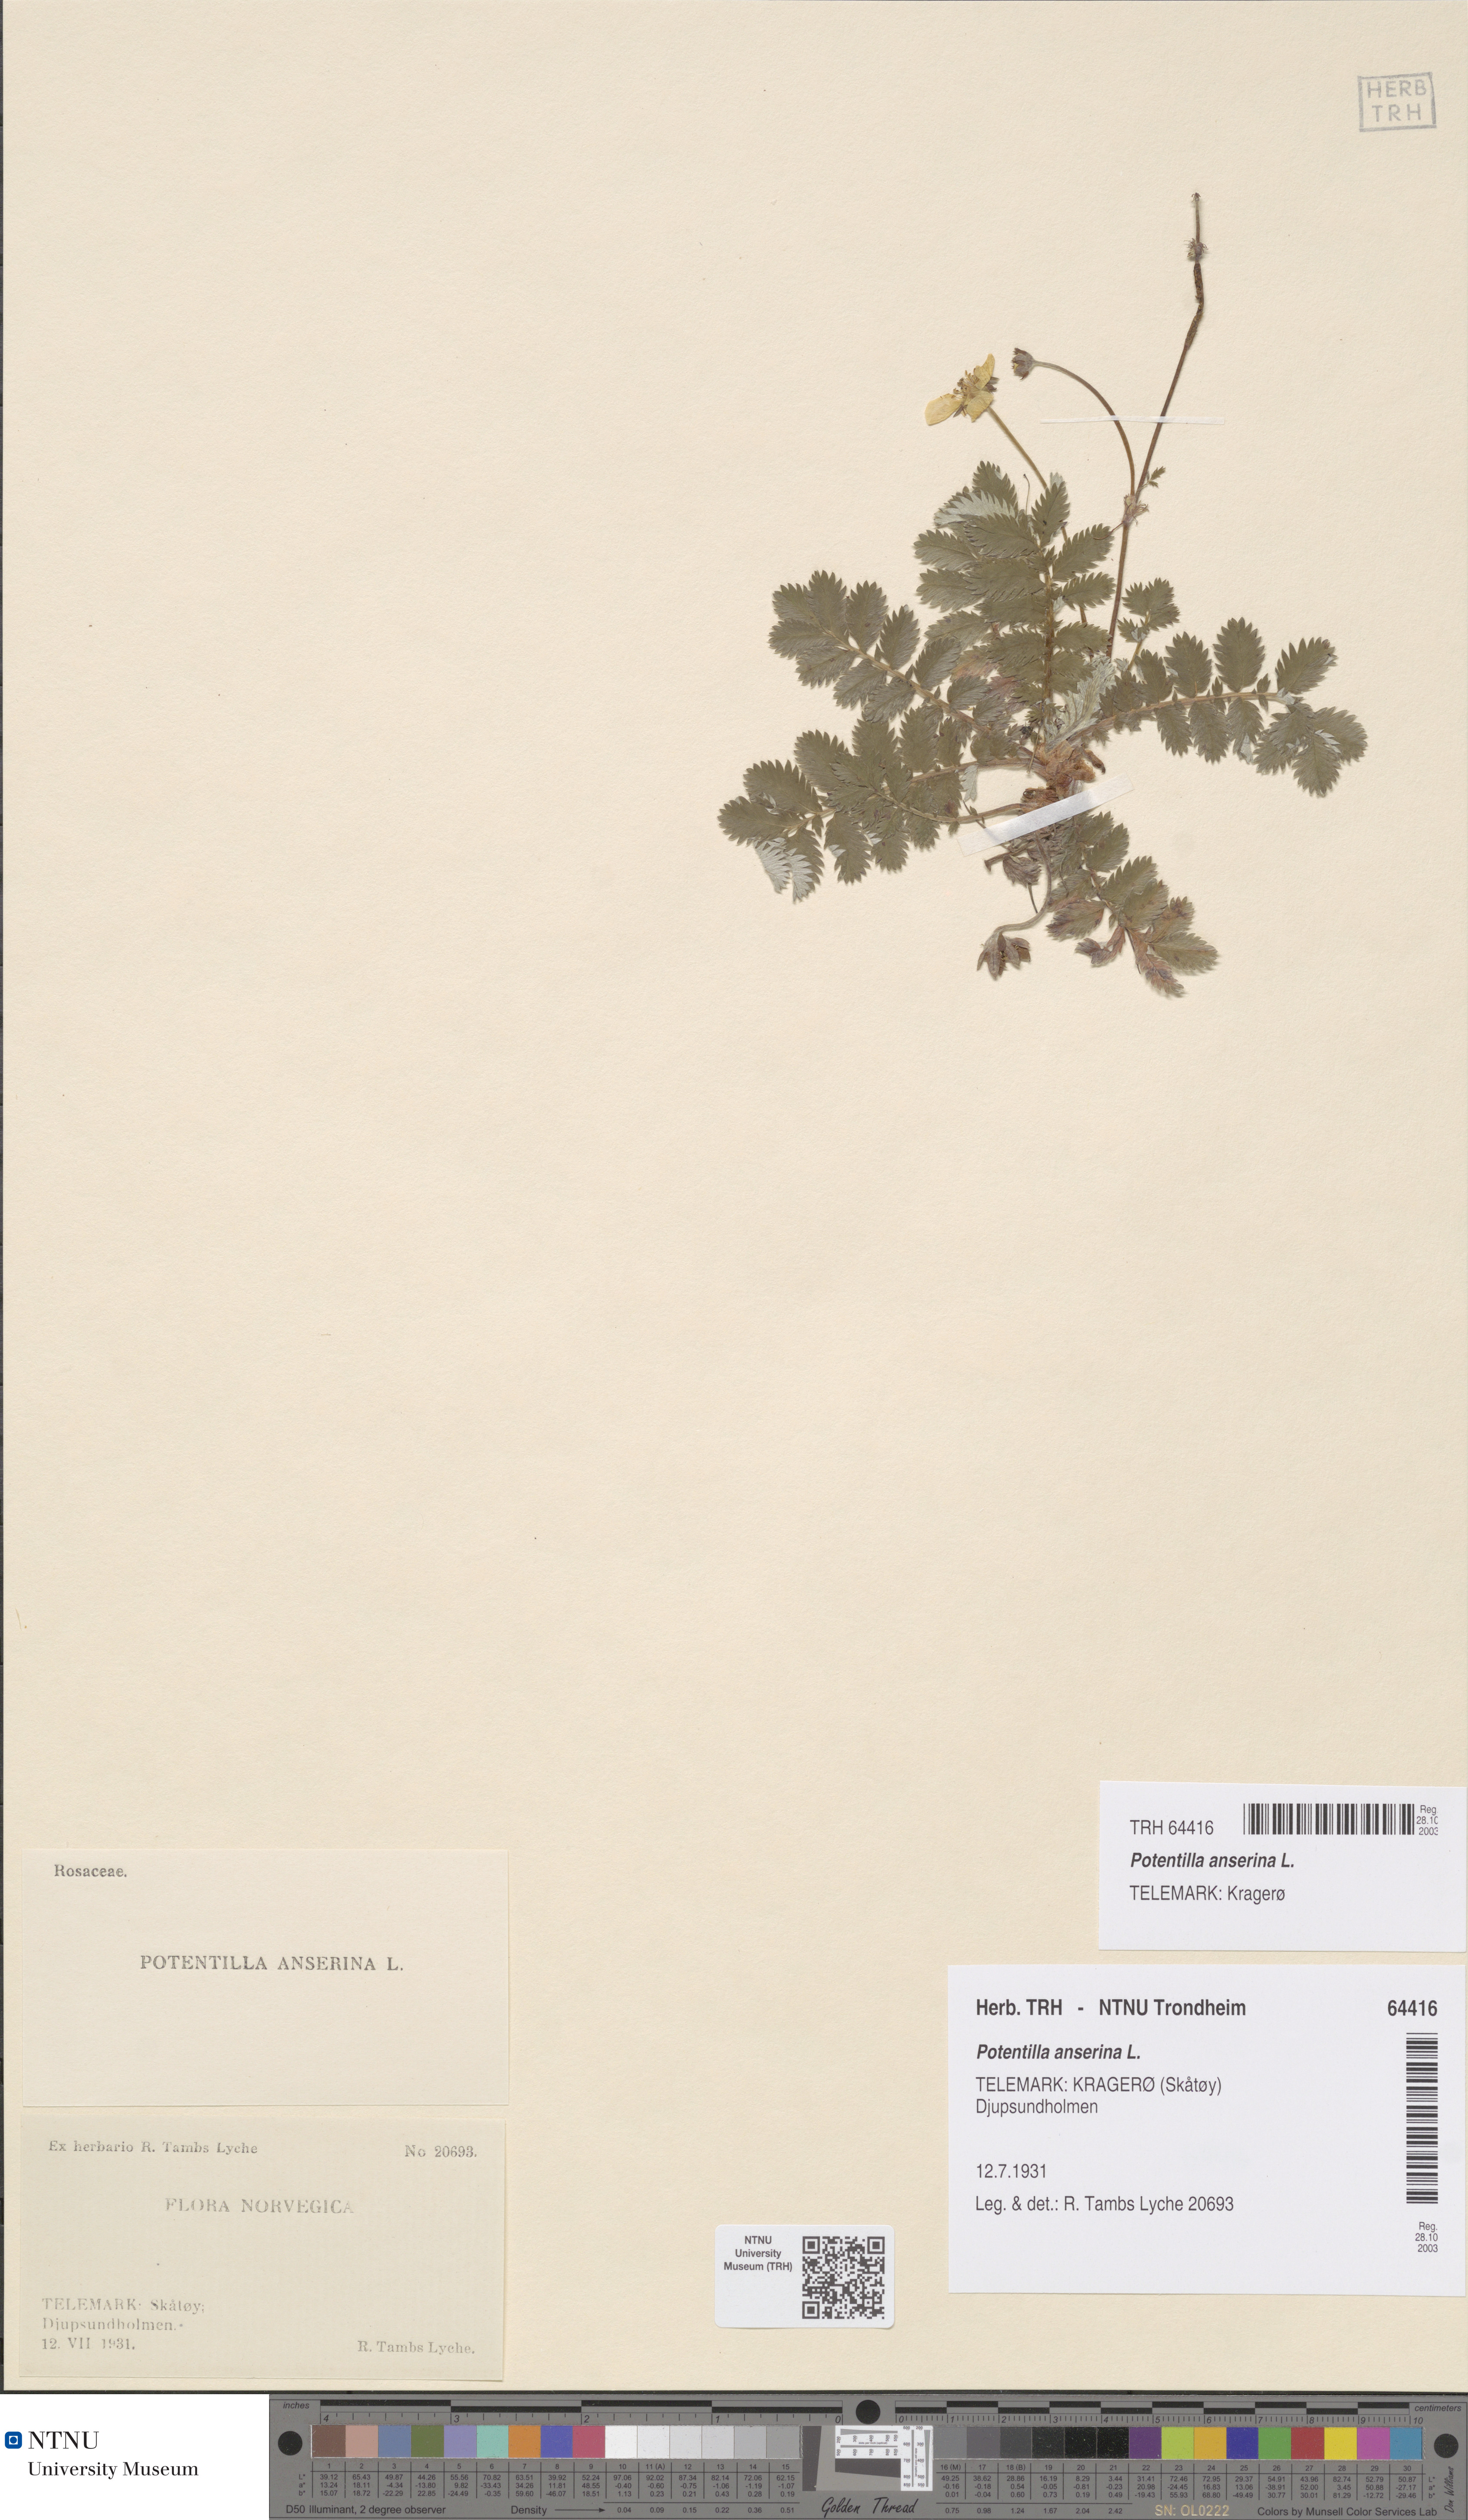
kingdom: Plantae
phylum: Tracheophyta
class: Magnoliopsida
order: Rosales
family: Rosaceae
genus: Argentina
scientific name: Argentina anserina
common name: Common silverweed
